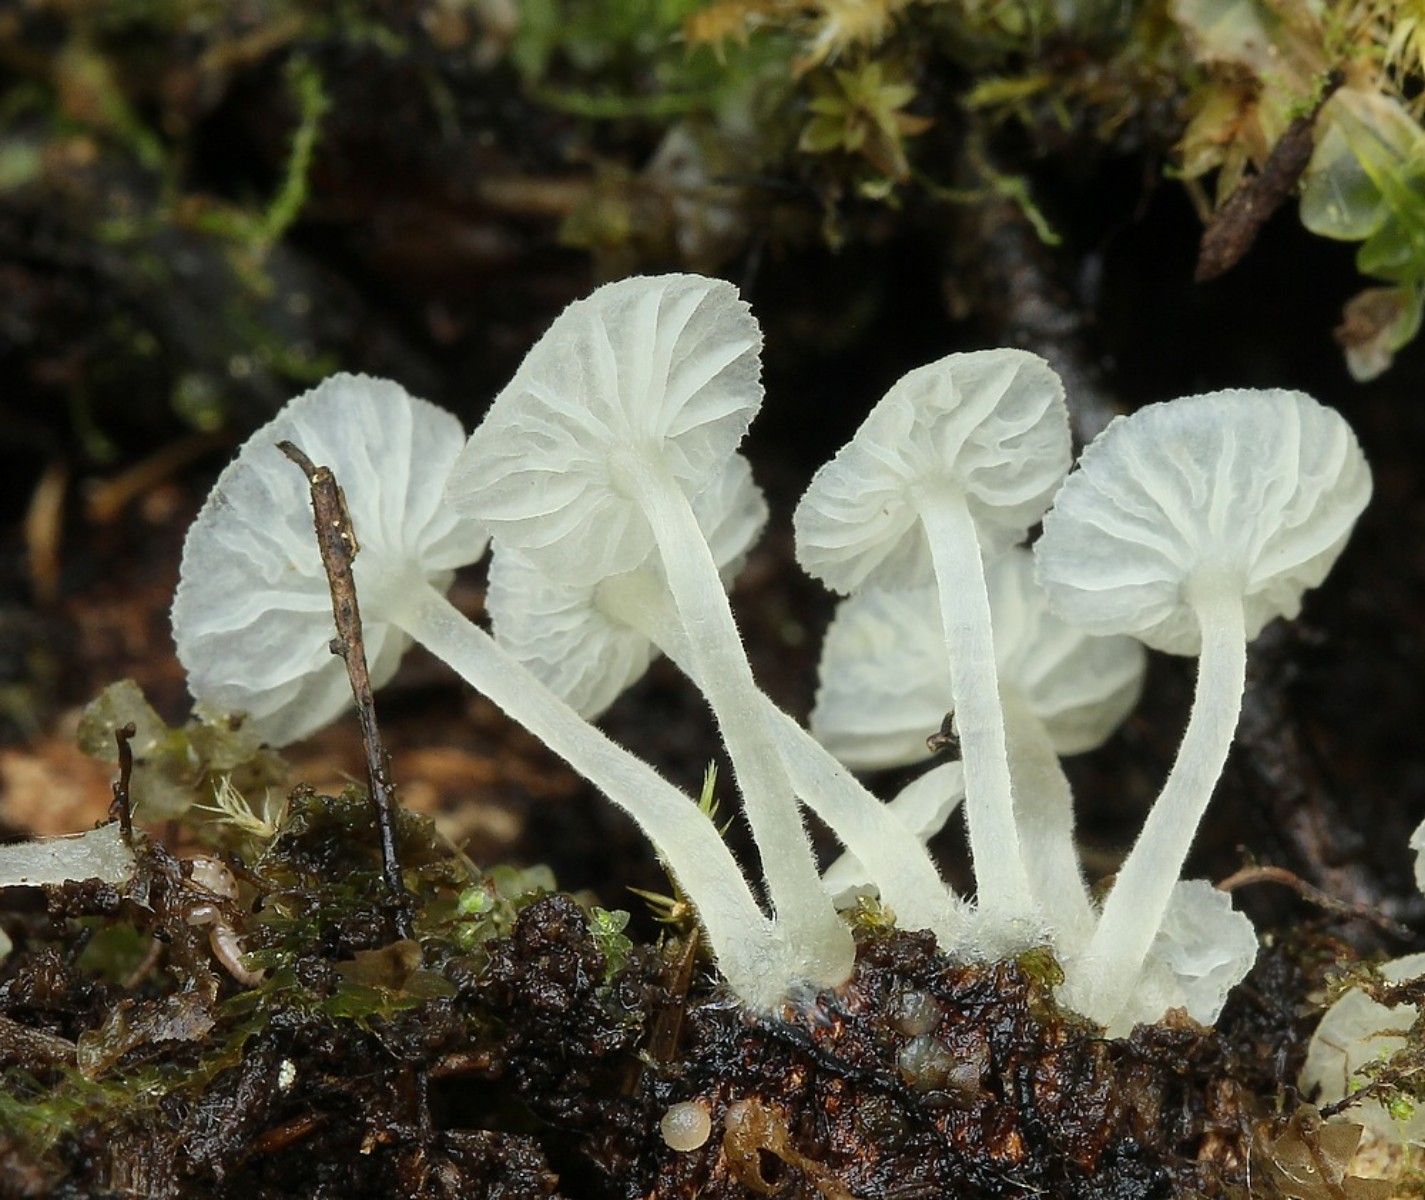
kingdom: Fungi
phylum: Basidiomycota
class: Agaricomycetes
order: Agaricales
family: Tricholomataceae
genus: Delicatula
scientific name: Delicatula integrella
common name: slørhuesvamp
